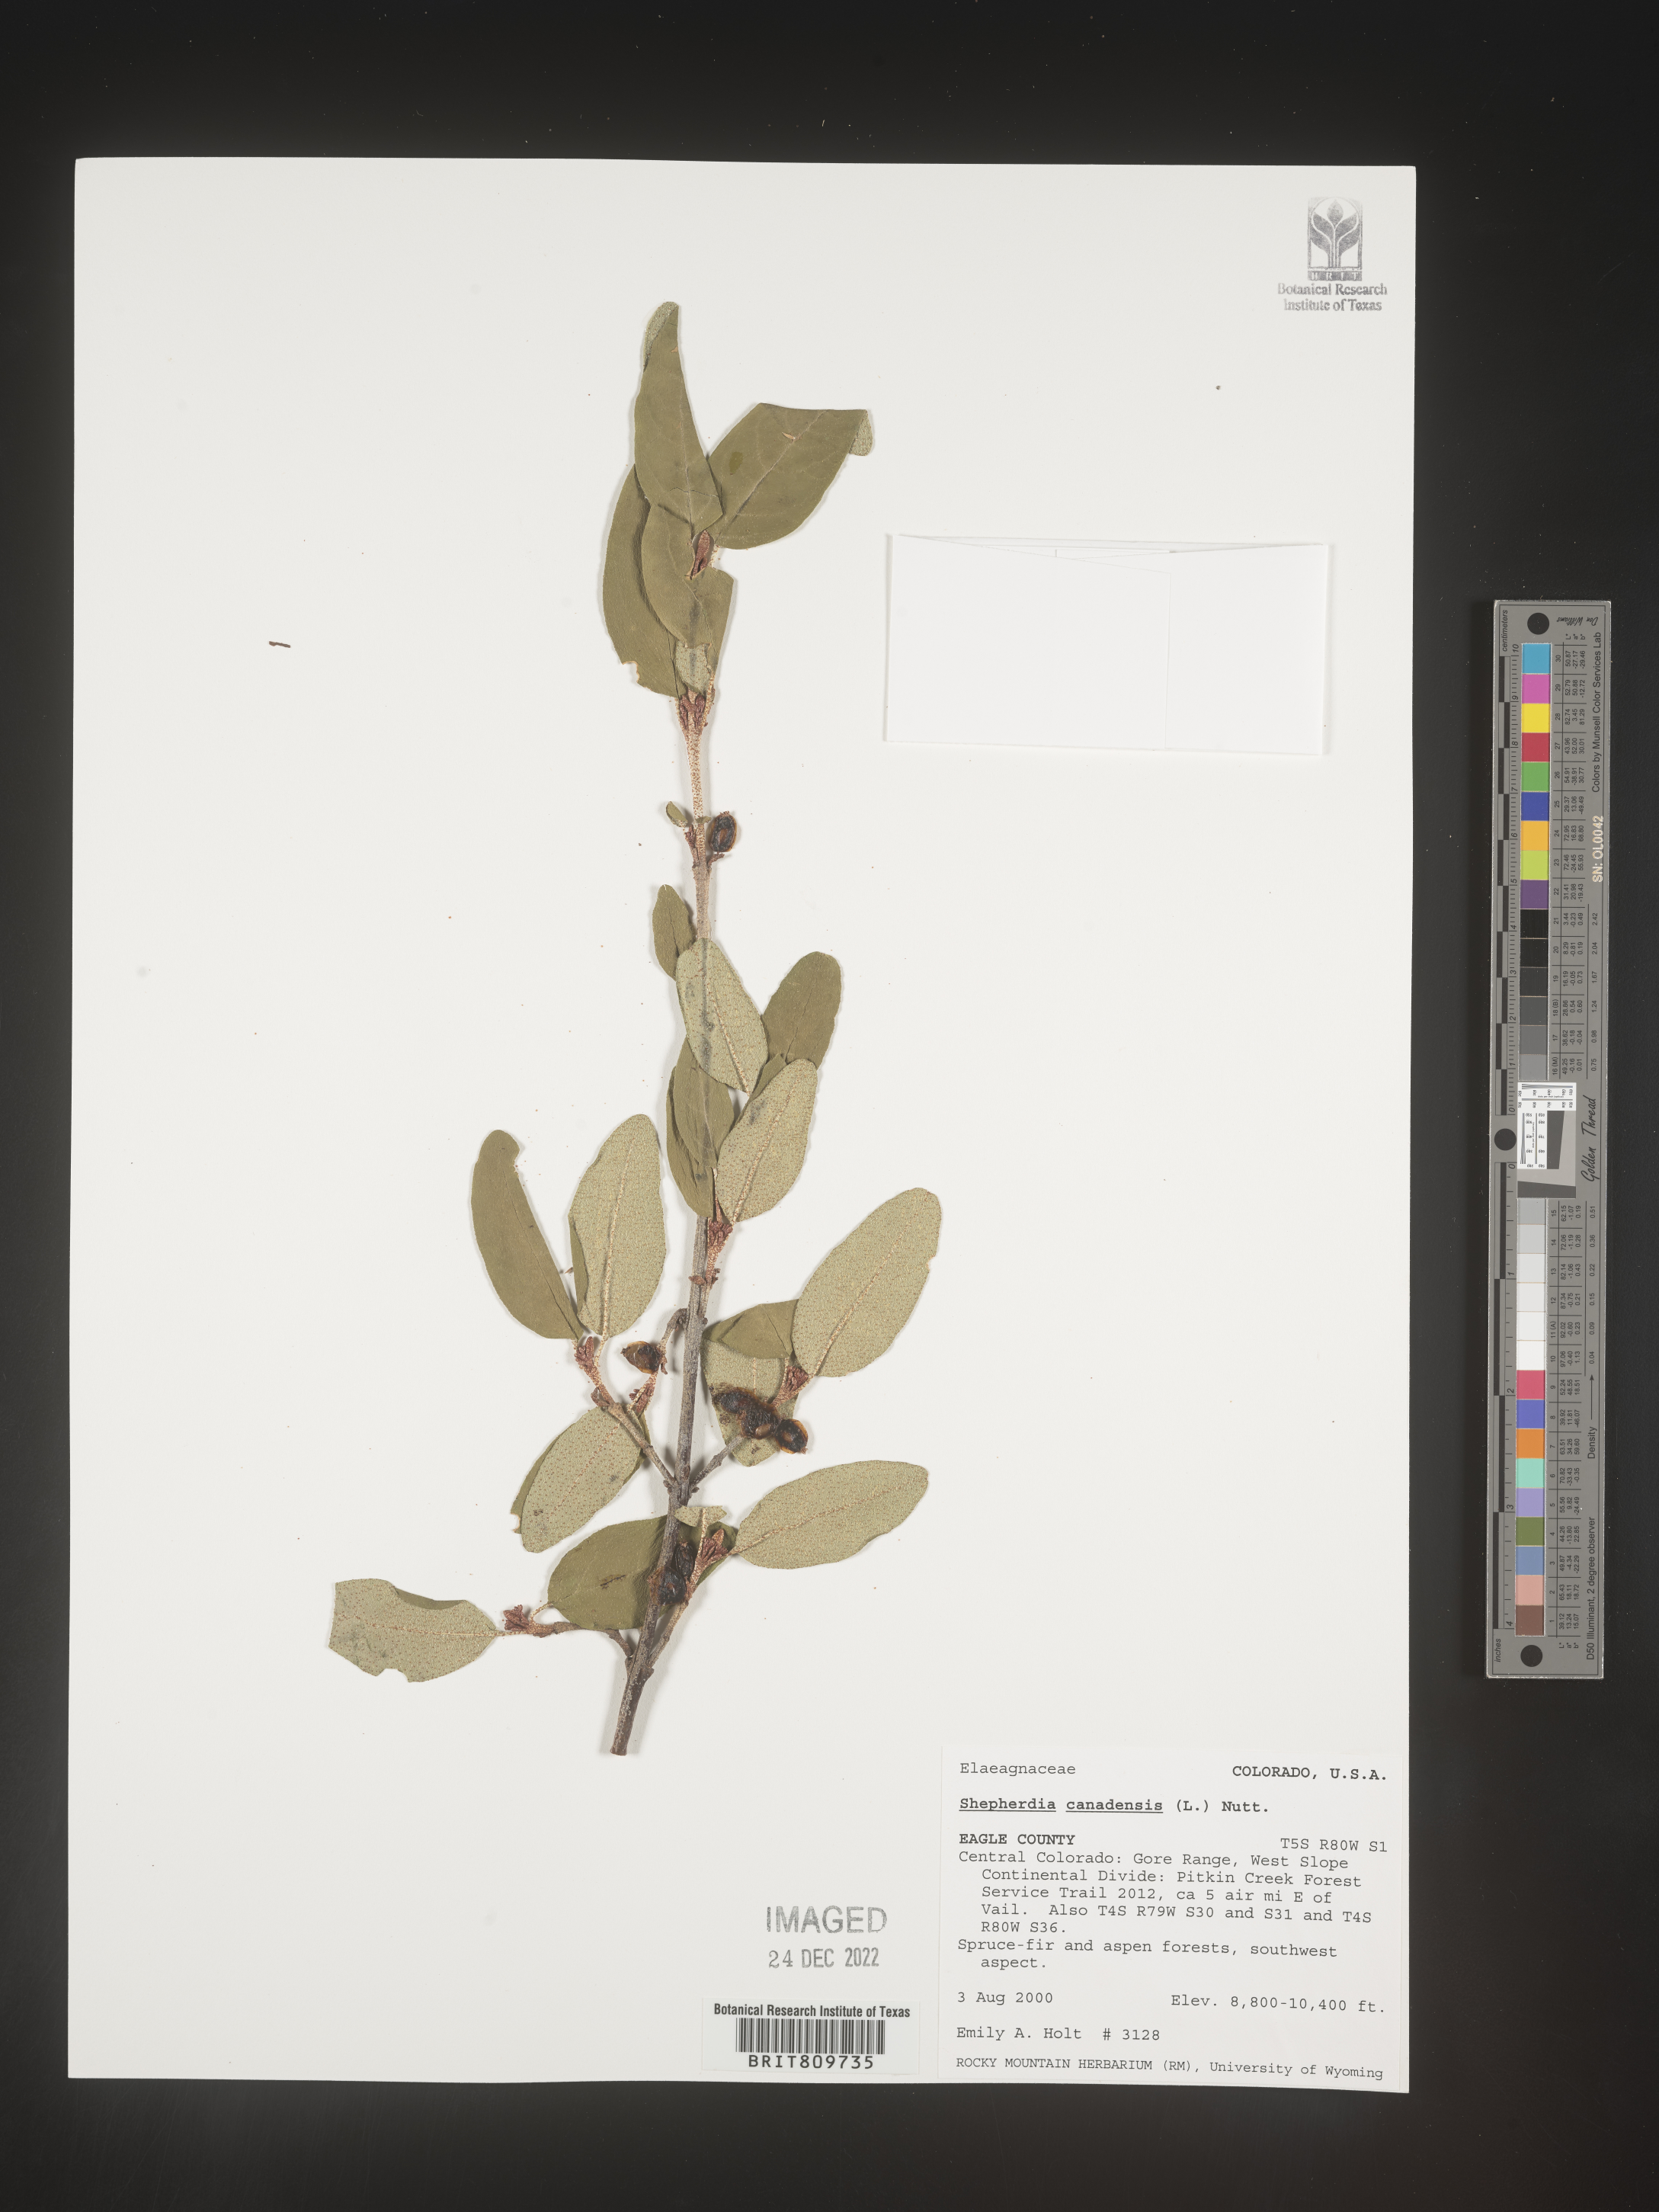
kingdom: Plantae
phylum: Tracheophyta
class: Magnoliopsida
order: Rosales
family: Elaeagnaceae
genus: Shepherdia
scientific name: Shepherdia canadensis
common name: Soapberry
